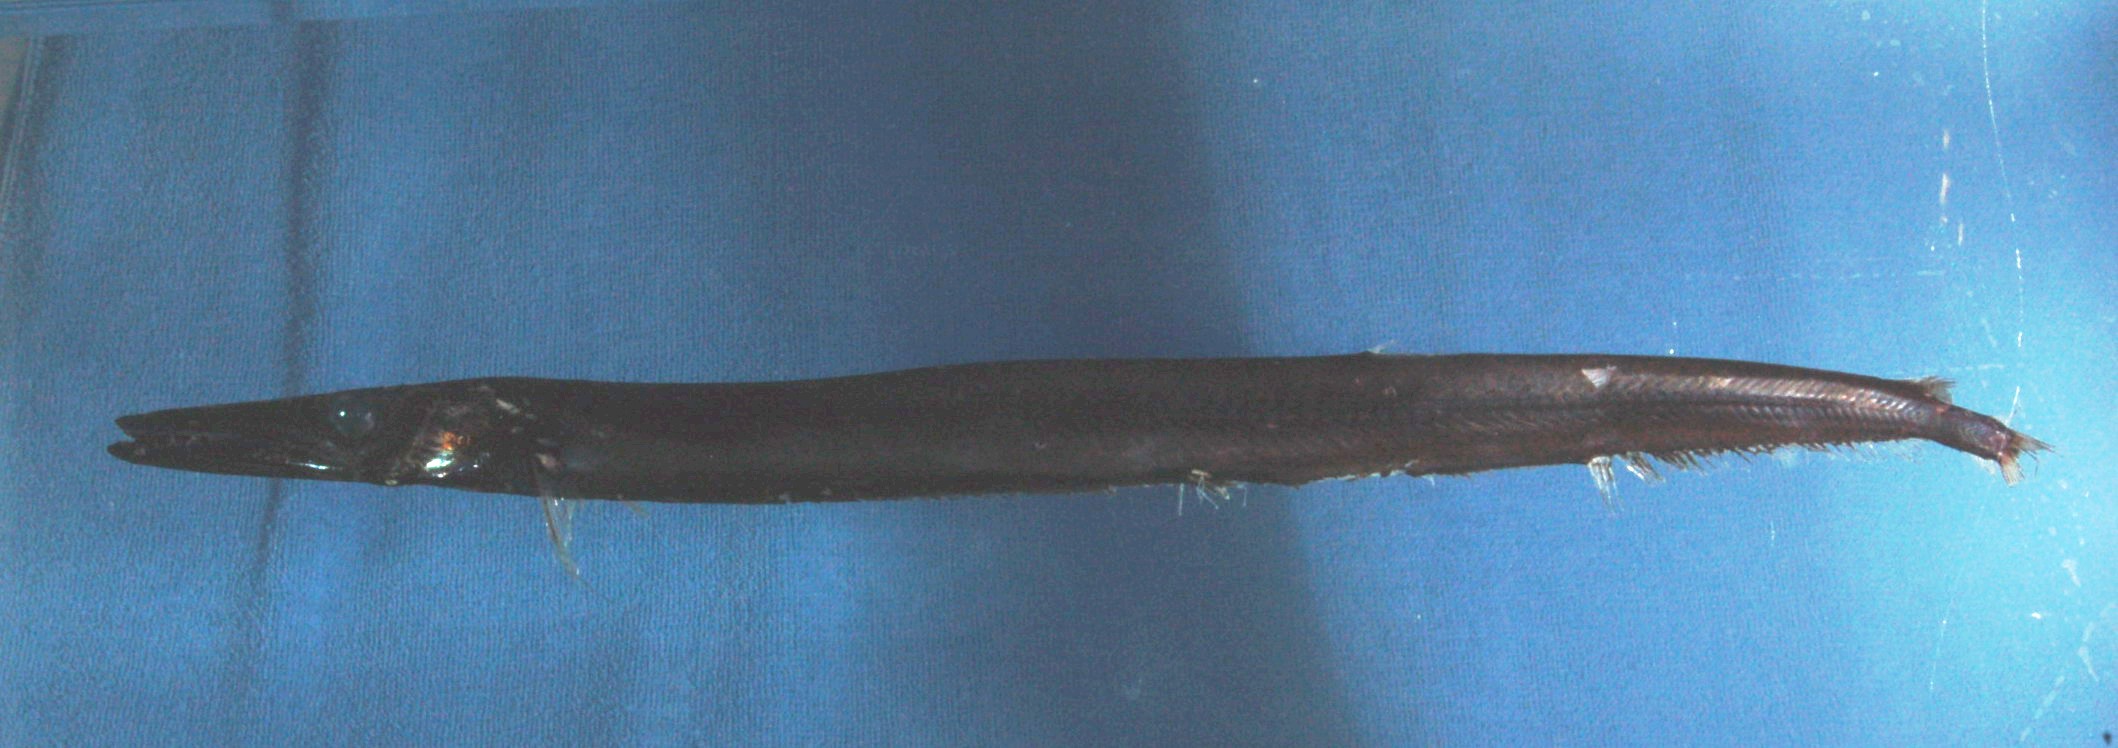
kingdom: Animalia
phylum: Chordata
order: Aulopiformes
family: Paralepididae
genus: Dolichosudis
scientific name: Dolichosudis fuliginosa
